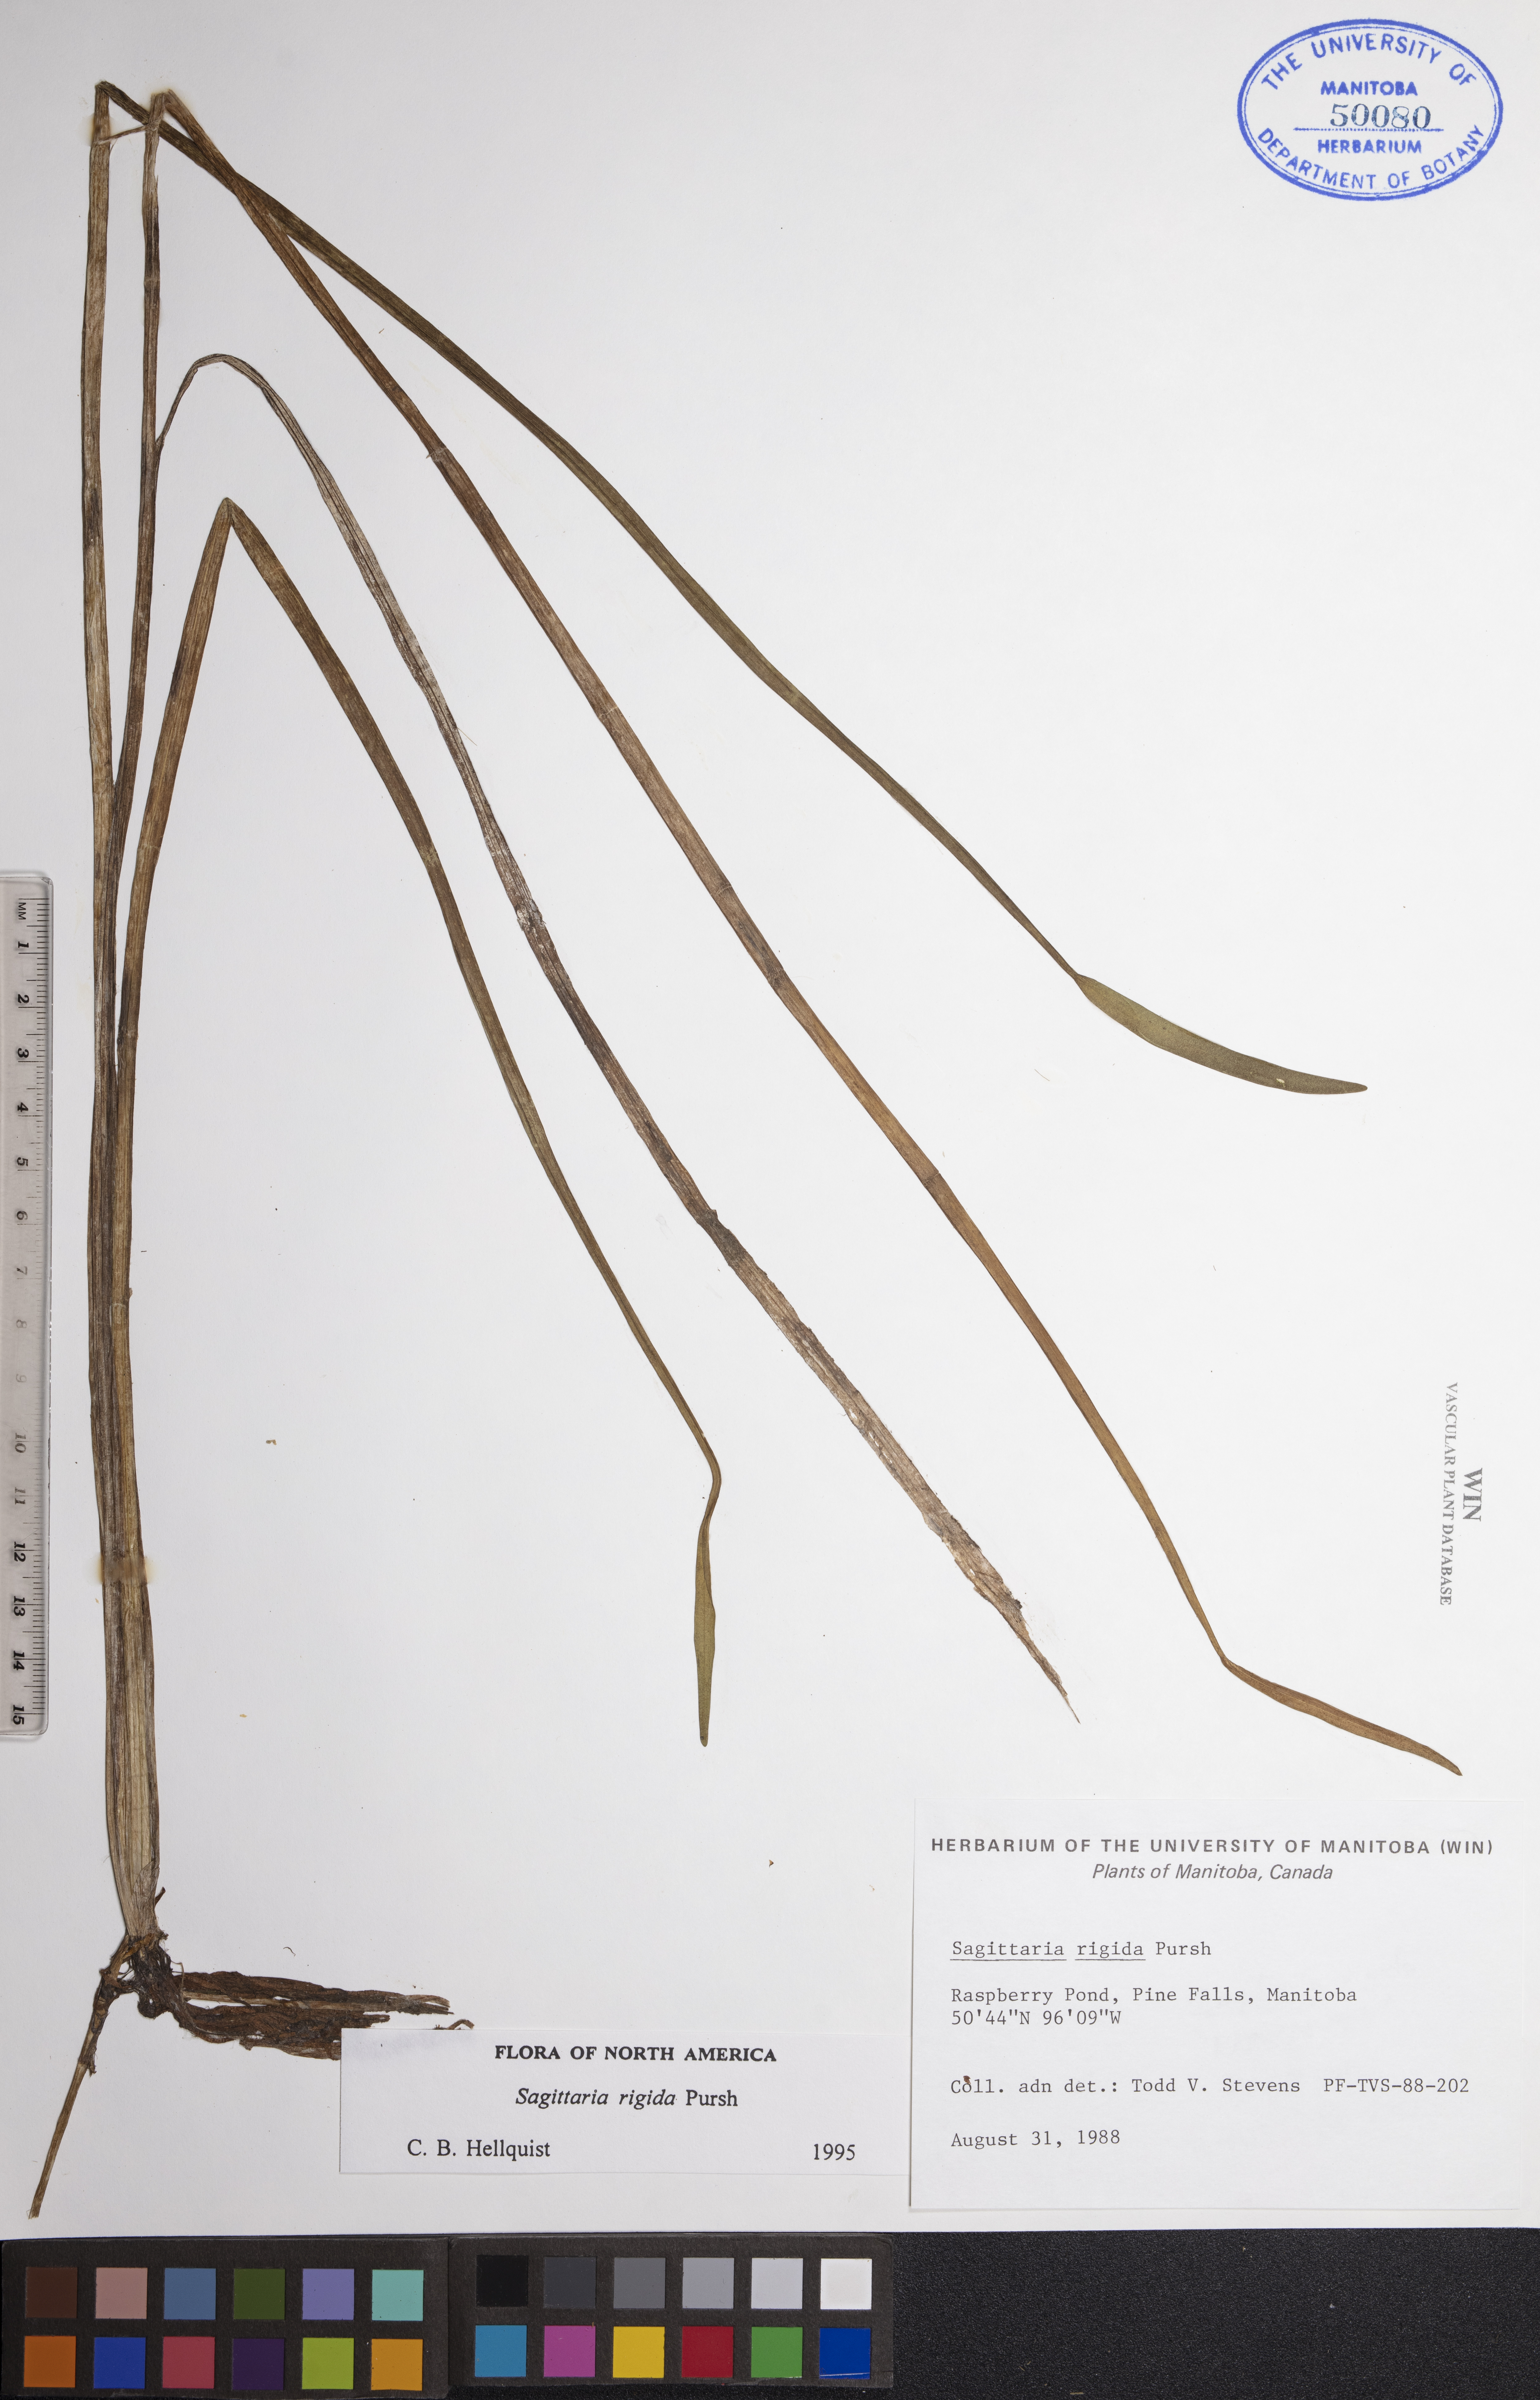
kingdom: Plantae
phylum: Tracheophyta
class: Liliopsida
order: Alismatales
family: Alismataceae
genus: Sagittaria
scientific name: Sagittaria rigida
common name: Canadian arrowhead
